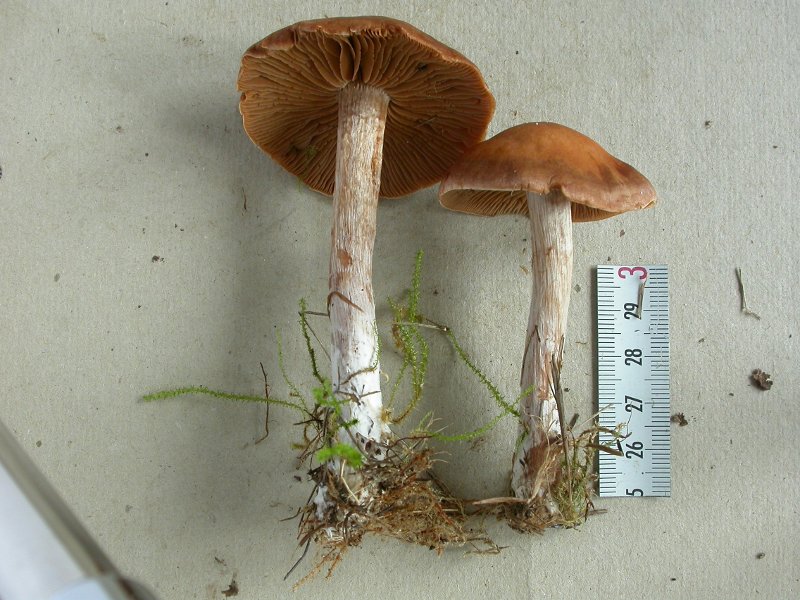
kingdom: Fungi
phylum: Basidiomycota
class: Agaricomycetes
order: Agaricales
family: Cortinariaceae
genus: Cortinarius
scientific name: Cortinarius subbalaustinus
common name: birke-slørhat
